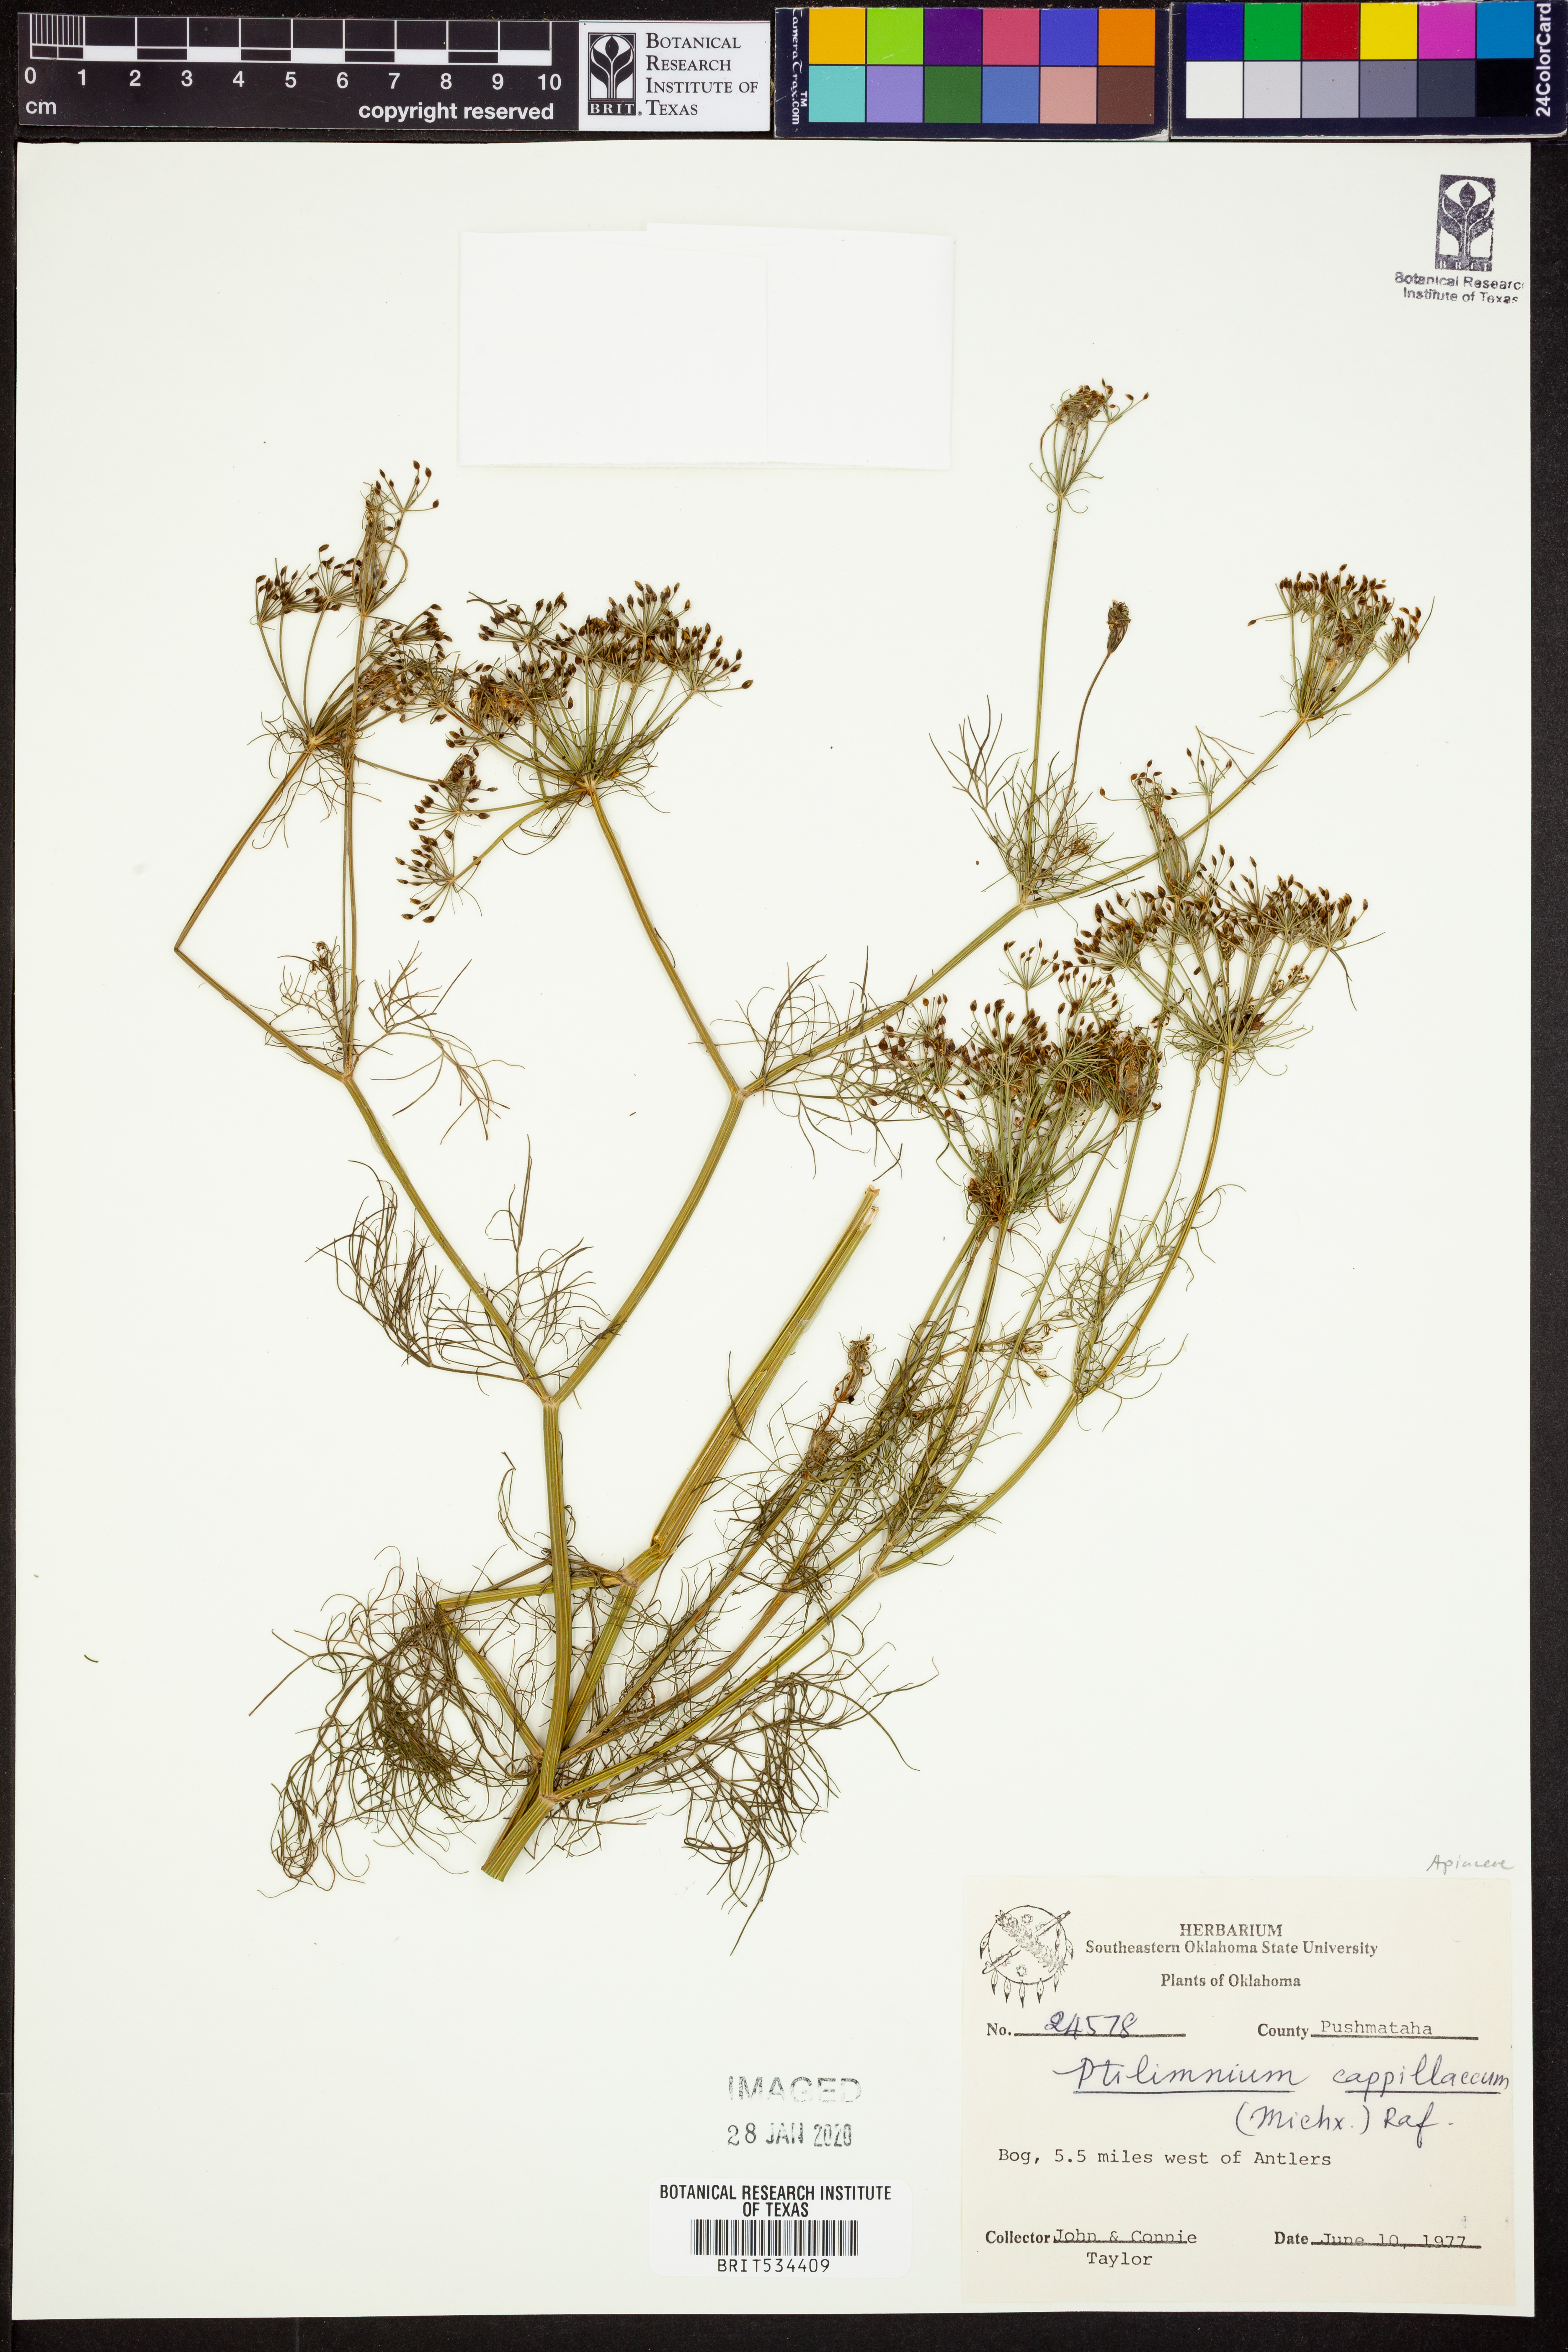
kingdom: Plantae
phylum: Tracheophyta
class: Magnoliopsida
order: Apiales
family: Apiaceae
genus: Ptilimnium
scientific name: Ptilimnium capillaceum
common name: Herbwilliam
